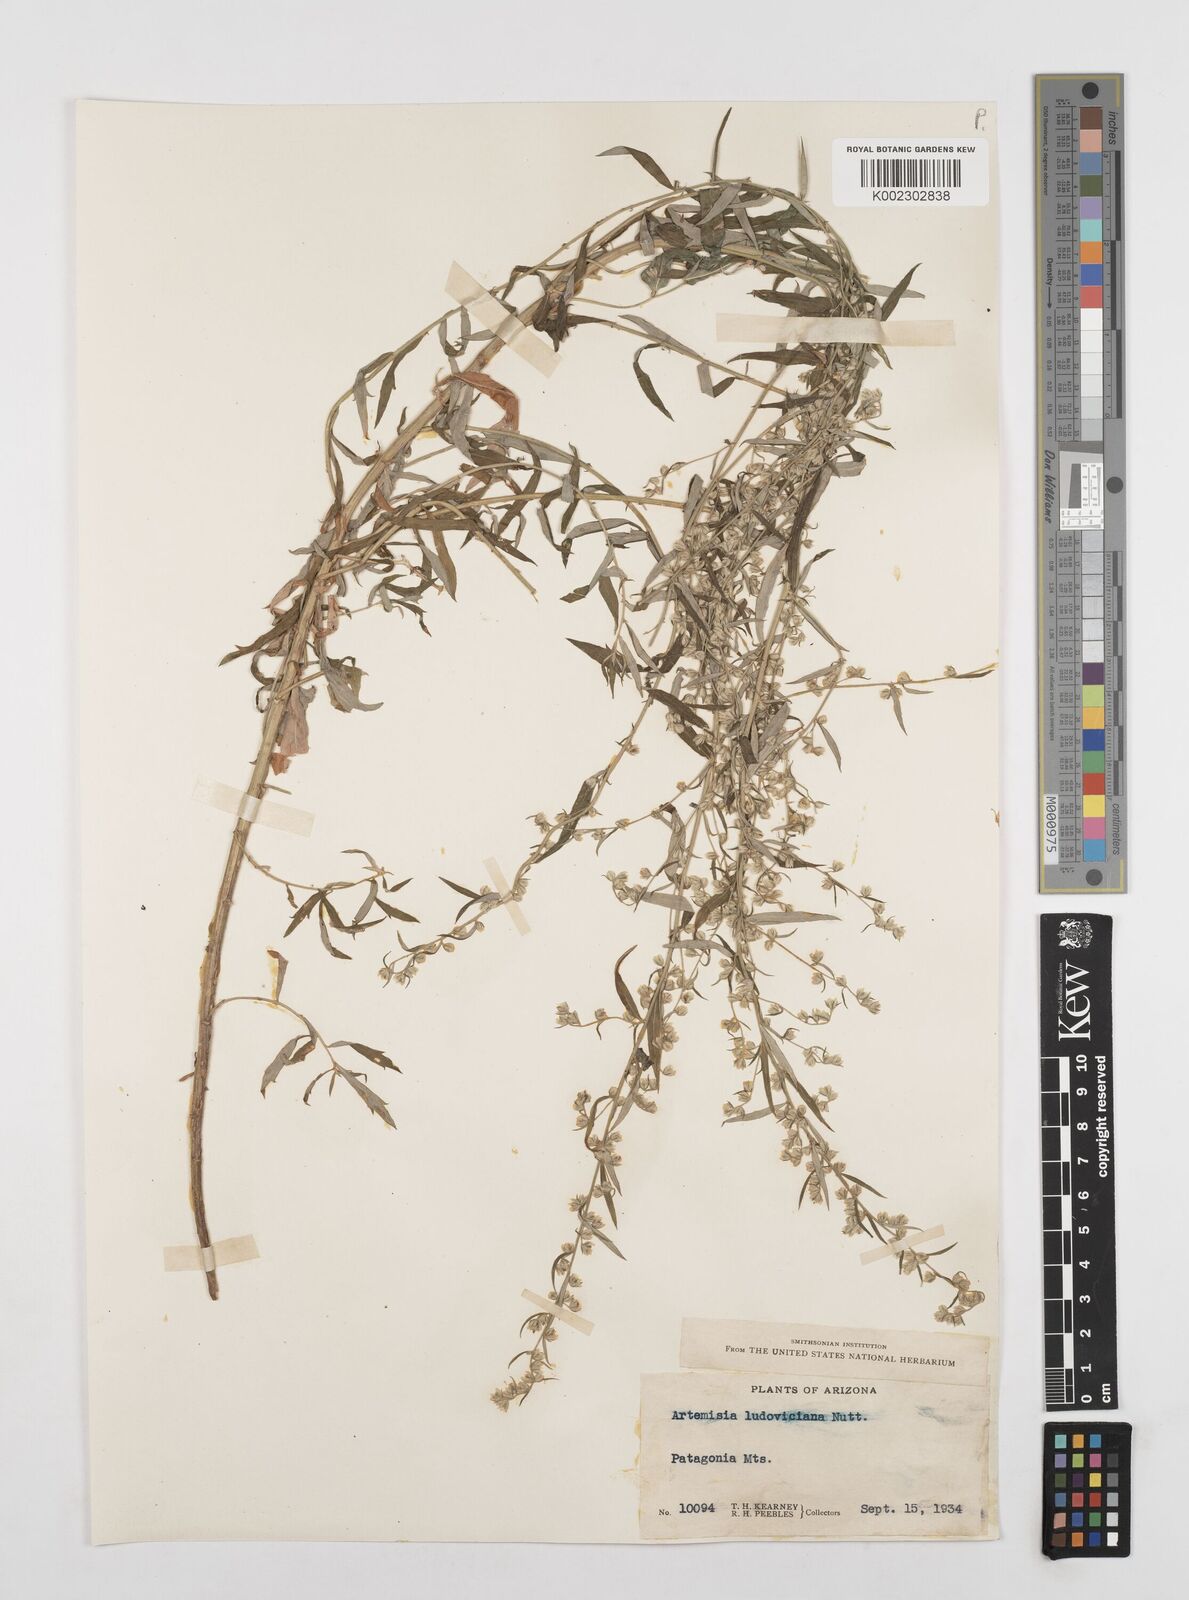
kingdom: Plantae
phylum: Tracheophyta
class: Magnoliopsida
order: Asterales
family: Asteraceae
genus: Artemisia
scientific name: Artemisia ludoviciana
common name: Western mugwort
